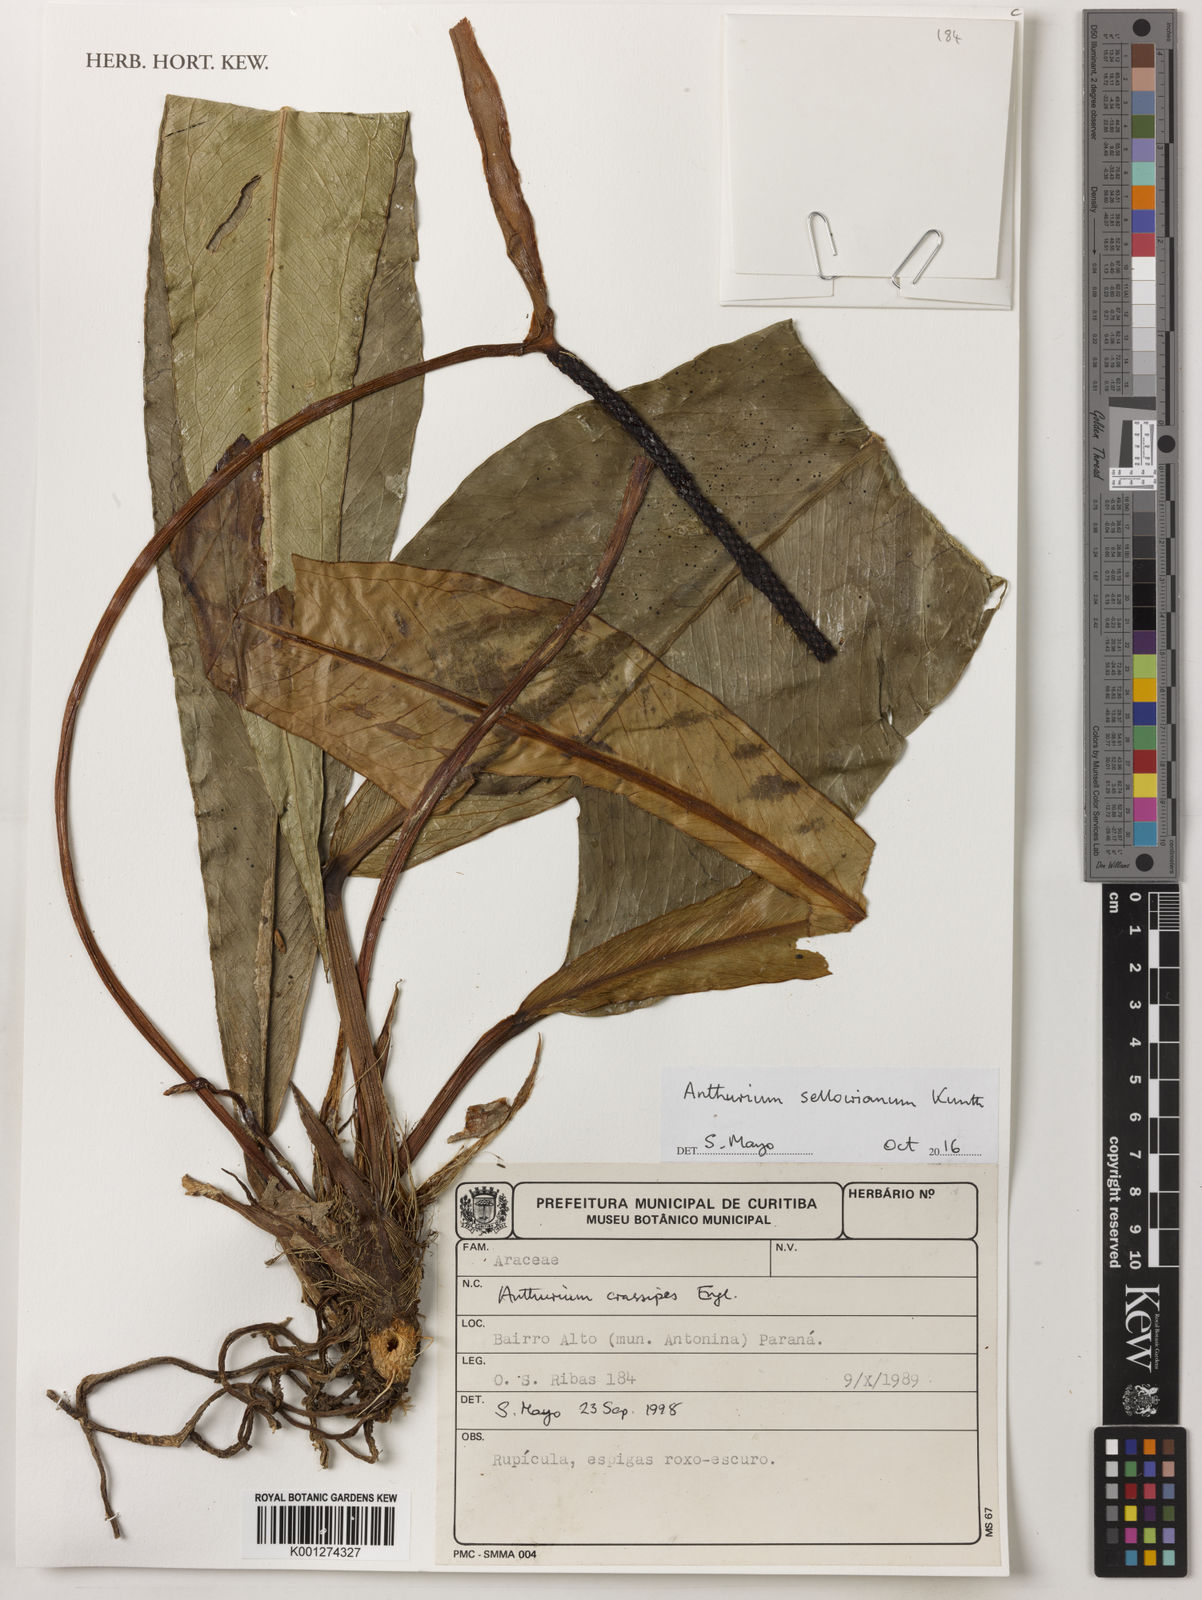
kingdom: Plantae
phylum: Tracheophyta
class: Liliopsida
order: Alismatales
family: Araceae
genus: Anthurium
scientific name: Anthurium sellowianum
